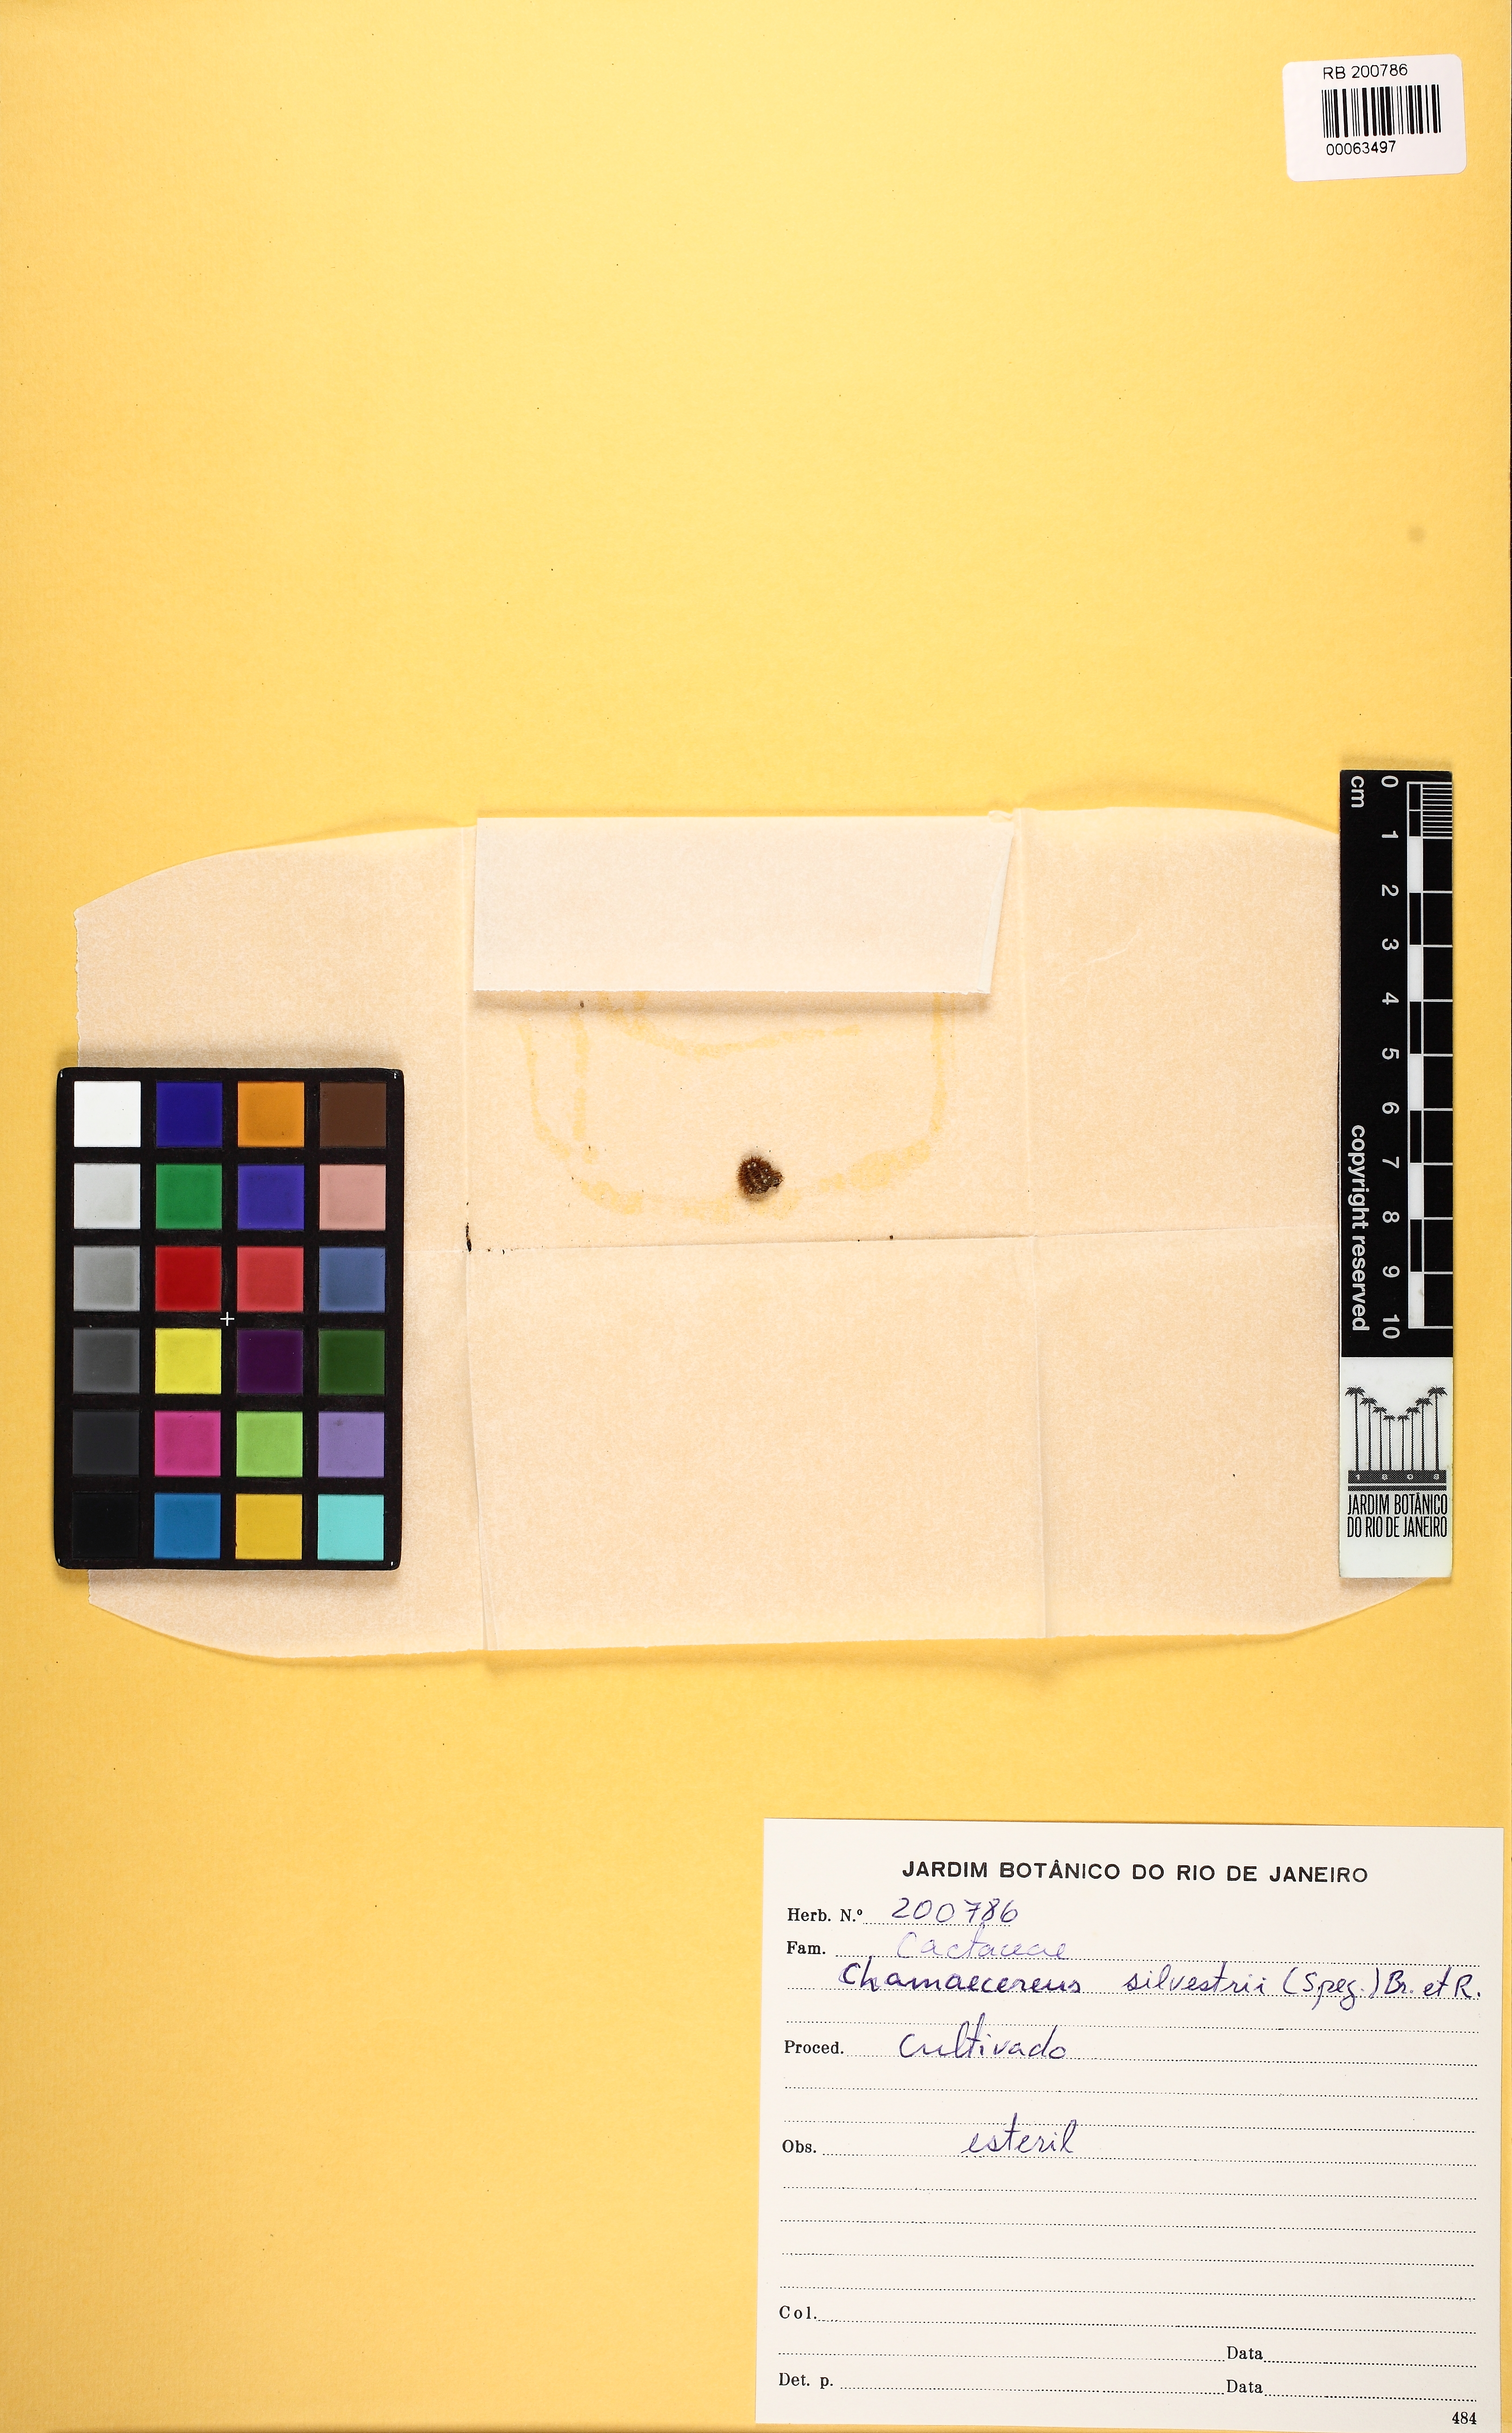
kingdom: Plantae
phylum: Tracheophyta
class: Magnoliopsida
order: Caryophyllales
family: Cactaceae
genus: Chamaecereus
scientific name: Chamaecereus silvestrii
